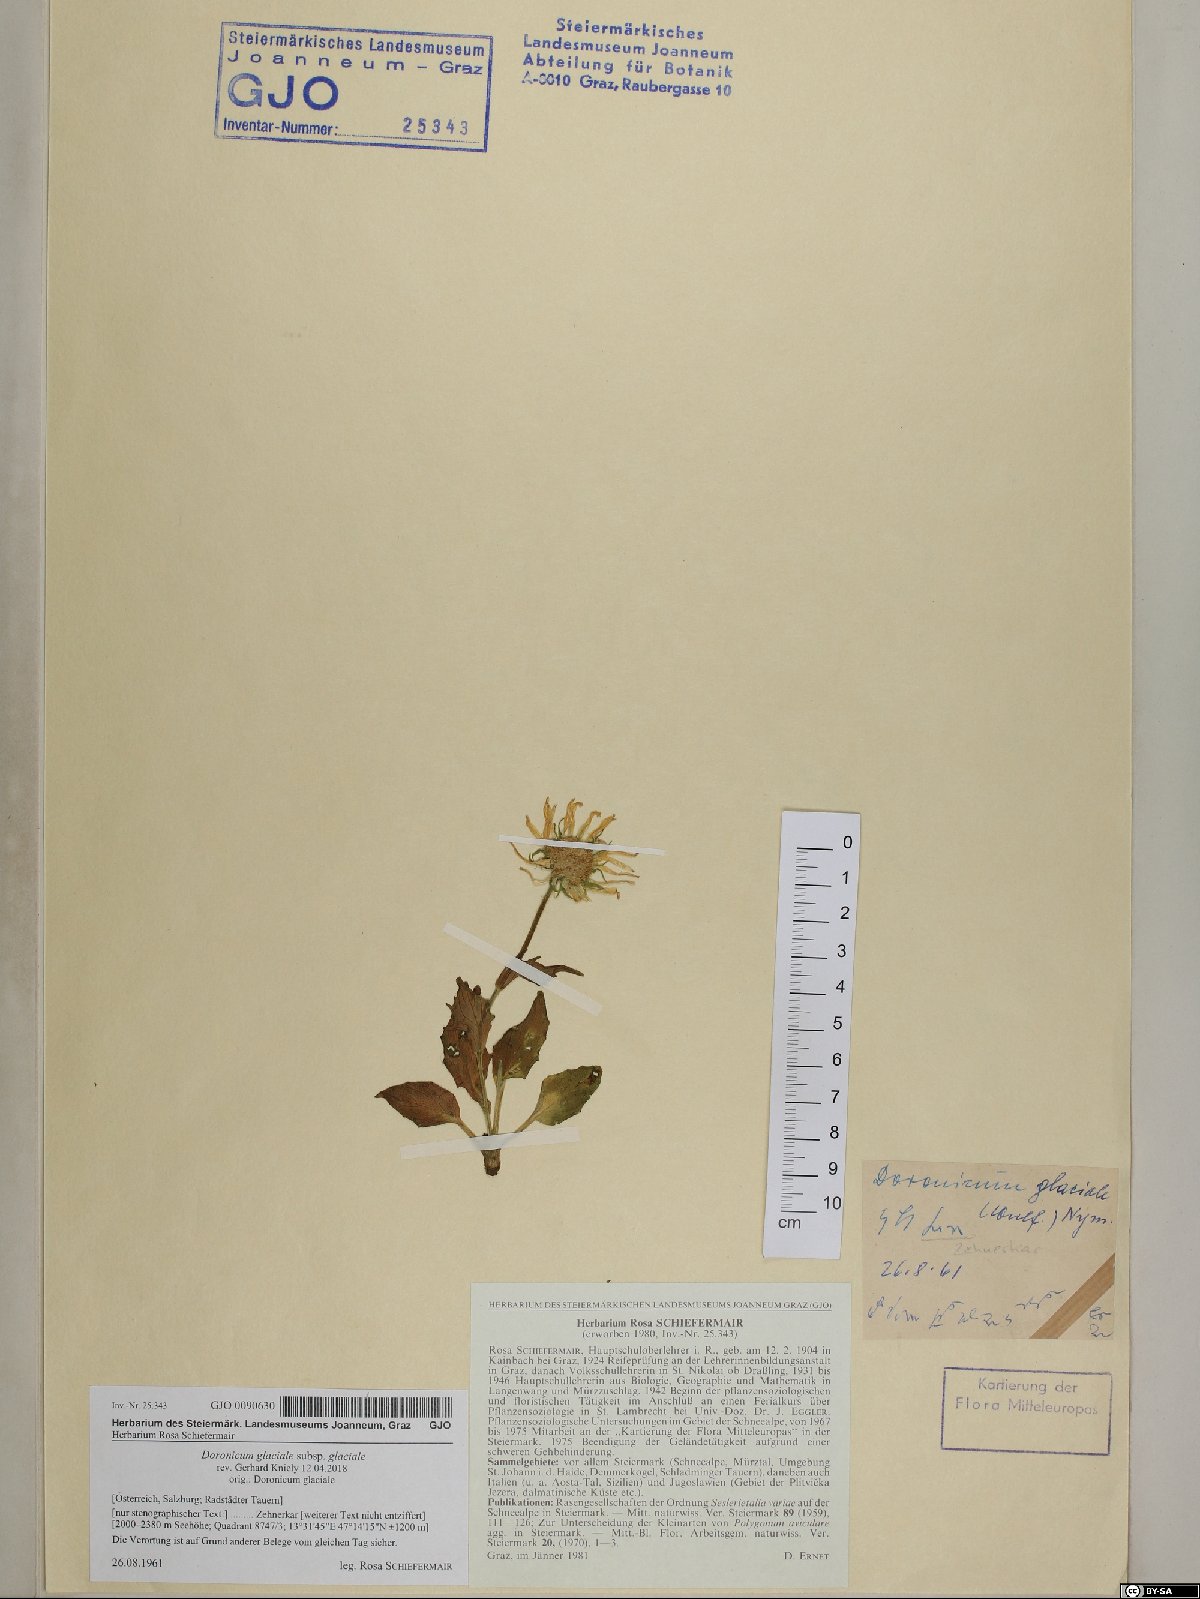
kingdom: Plantae
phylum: Tracheophyta
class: Magnoliopsida
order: Brassicales
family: Brassicaceae
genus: Lunaria
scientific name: Lunaria annua
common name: Honesty
